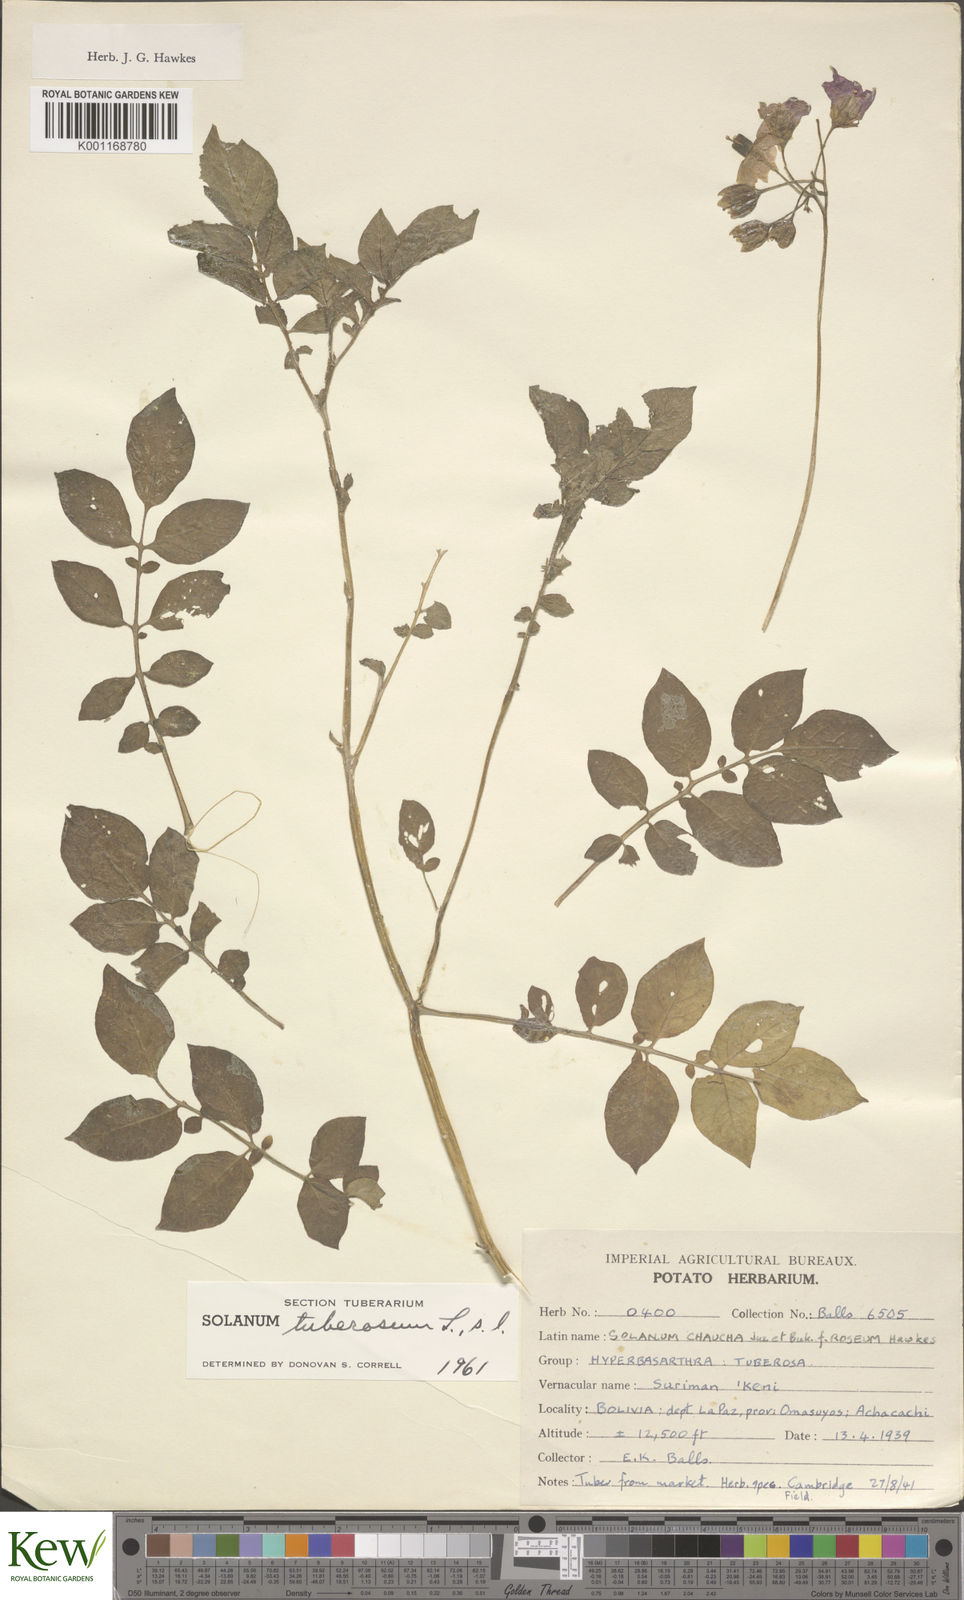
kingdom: Plantae
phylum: Tracheophyta
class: Magnoliopsida
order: Solanales
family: Solanaceae
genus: Solanum
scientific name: Solanum chaucha
